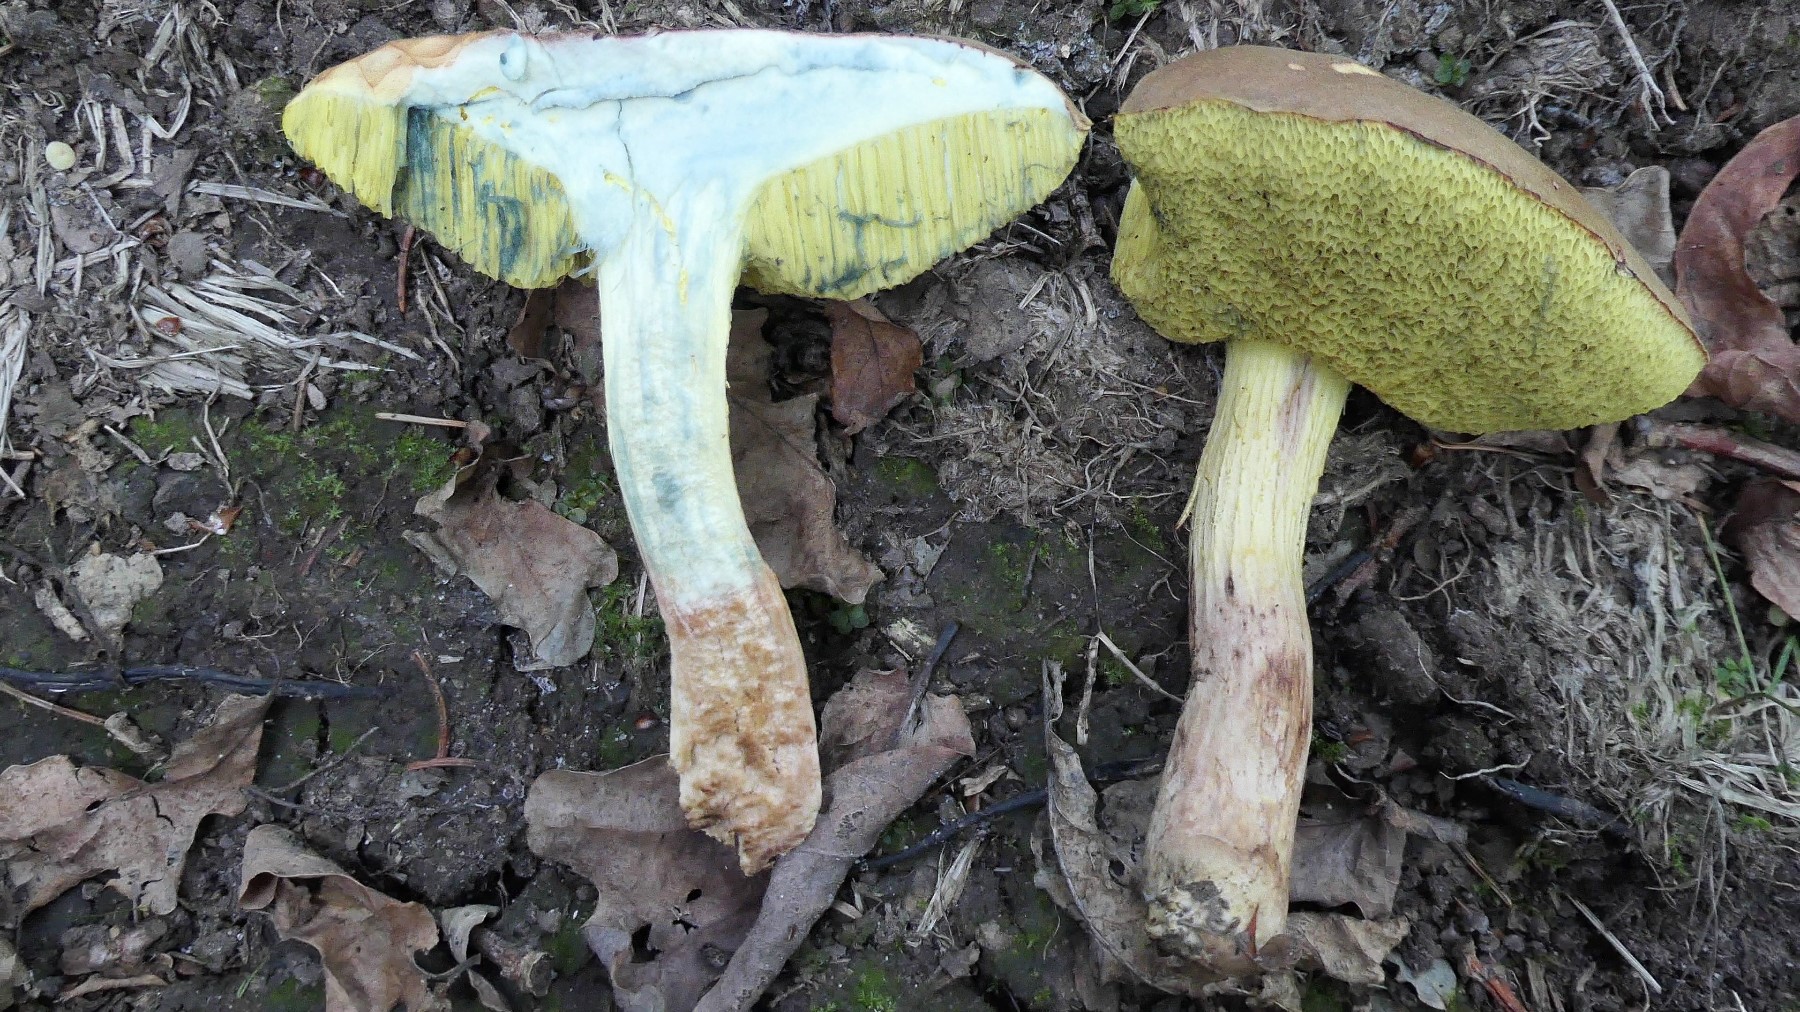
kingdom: Fungi
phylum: Basidiomycota
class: Agaricomycetes
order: Boletales
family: Boletaceae
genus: Xerocomus
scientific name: Xerocomus subtomentosus
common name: filtet rørhat
